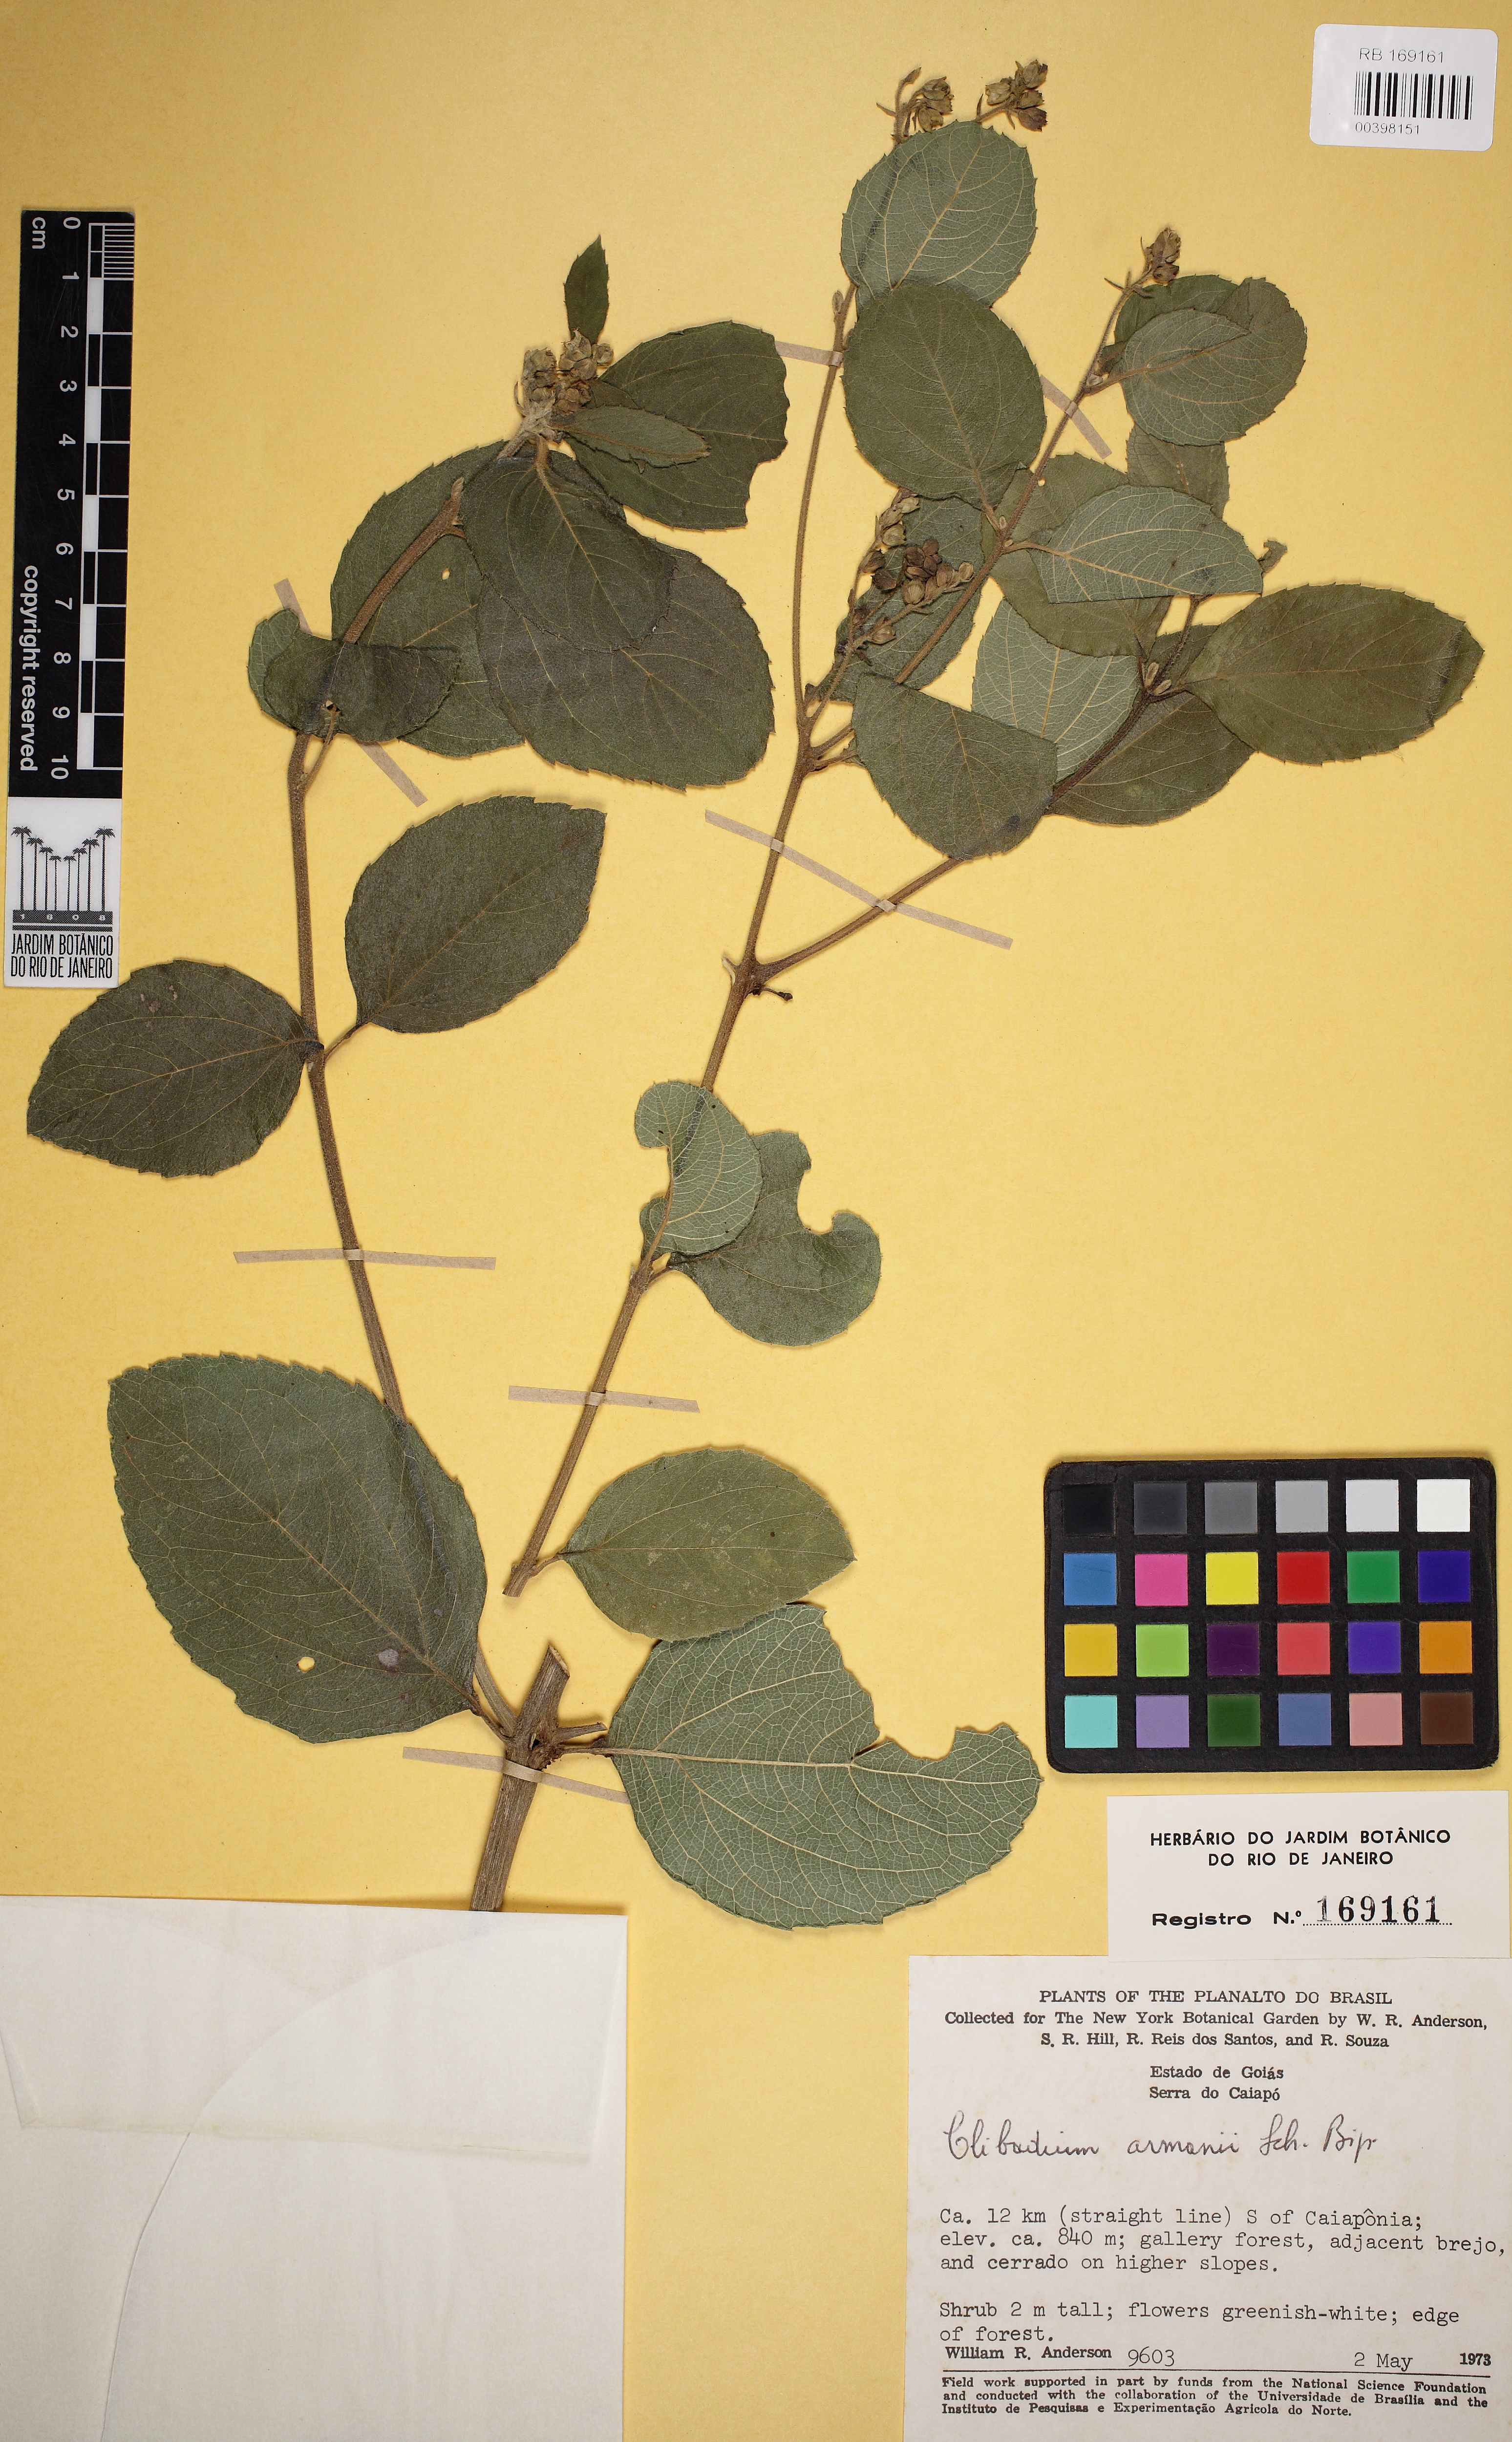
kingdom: Plantae
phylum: Tracheophyta
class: Magnoliopsida
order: Asterales
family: Asteraceae
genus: Clibadium
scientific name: Clibadium armanii
